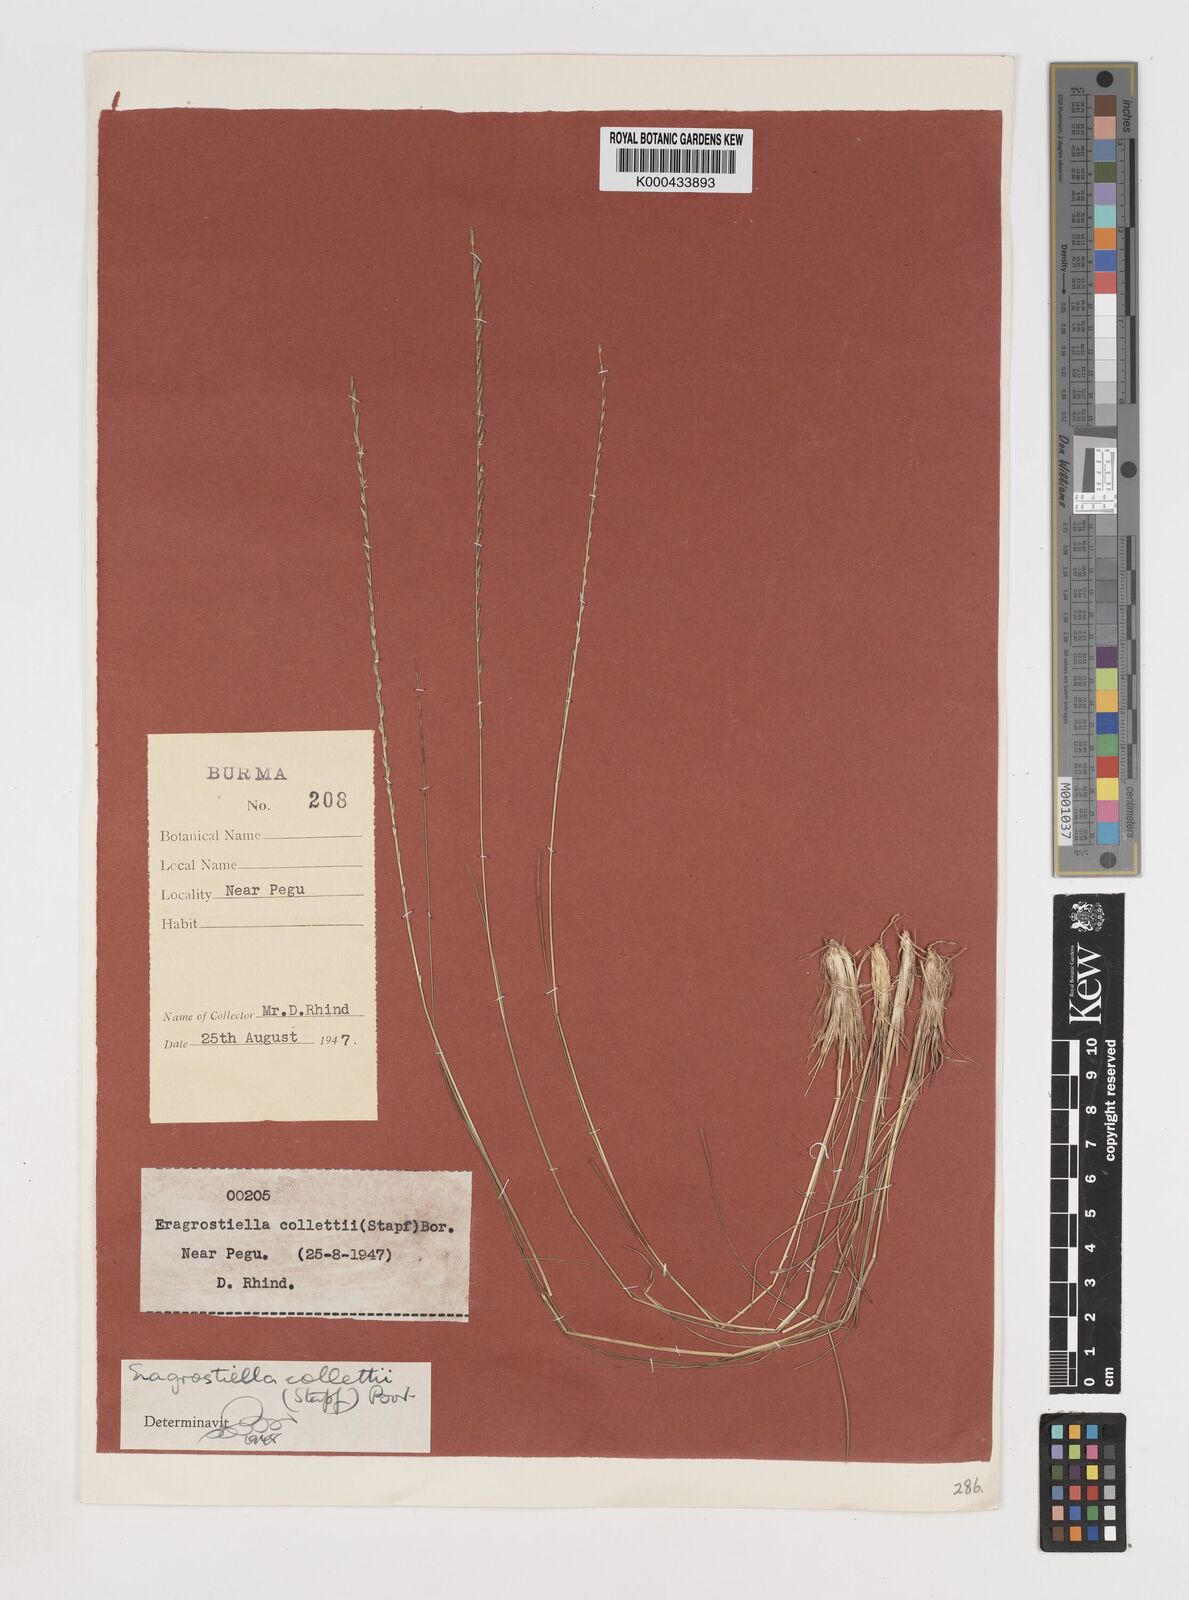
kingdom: Plantae
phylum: Tracheophyta
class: Liliopsida
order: Poales
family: Poaceae
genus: Eragrostiella
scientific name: Eragrostiella collettii
